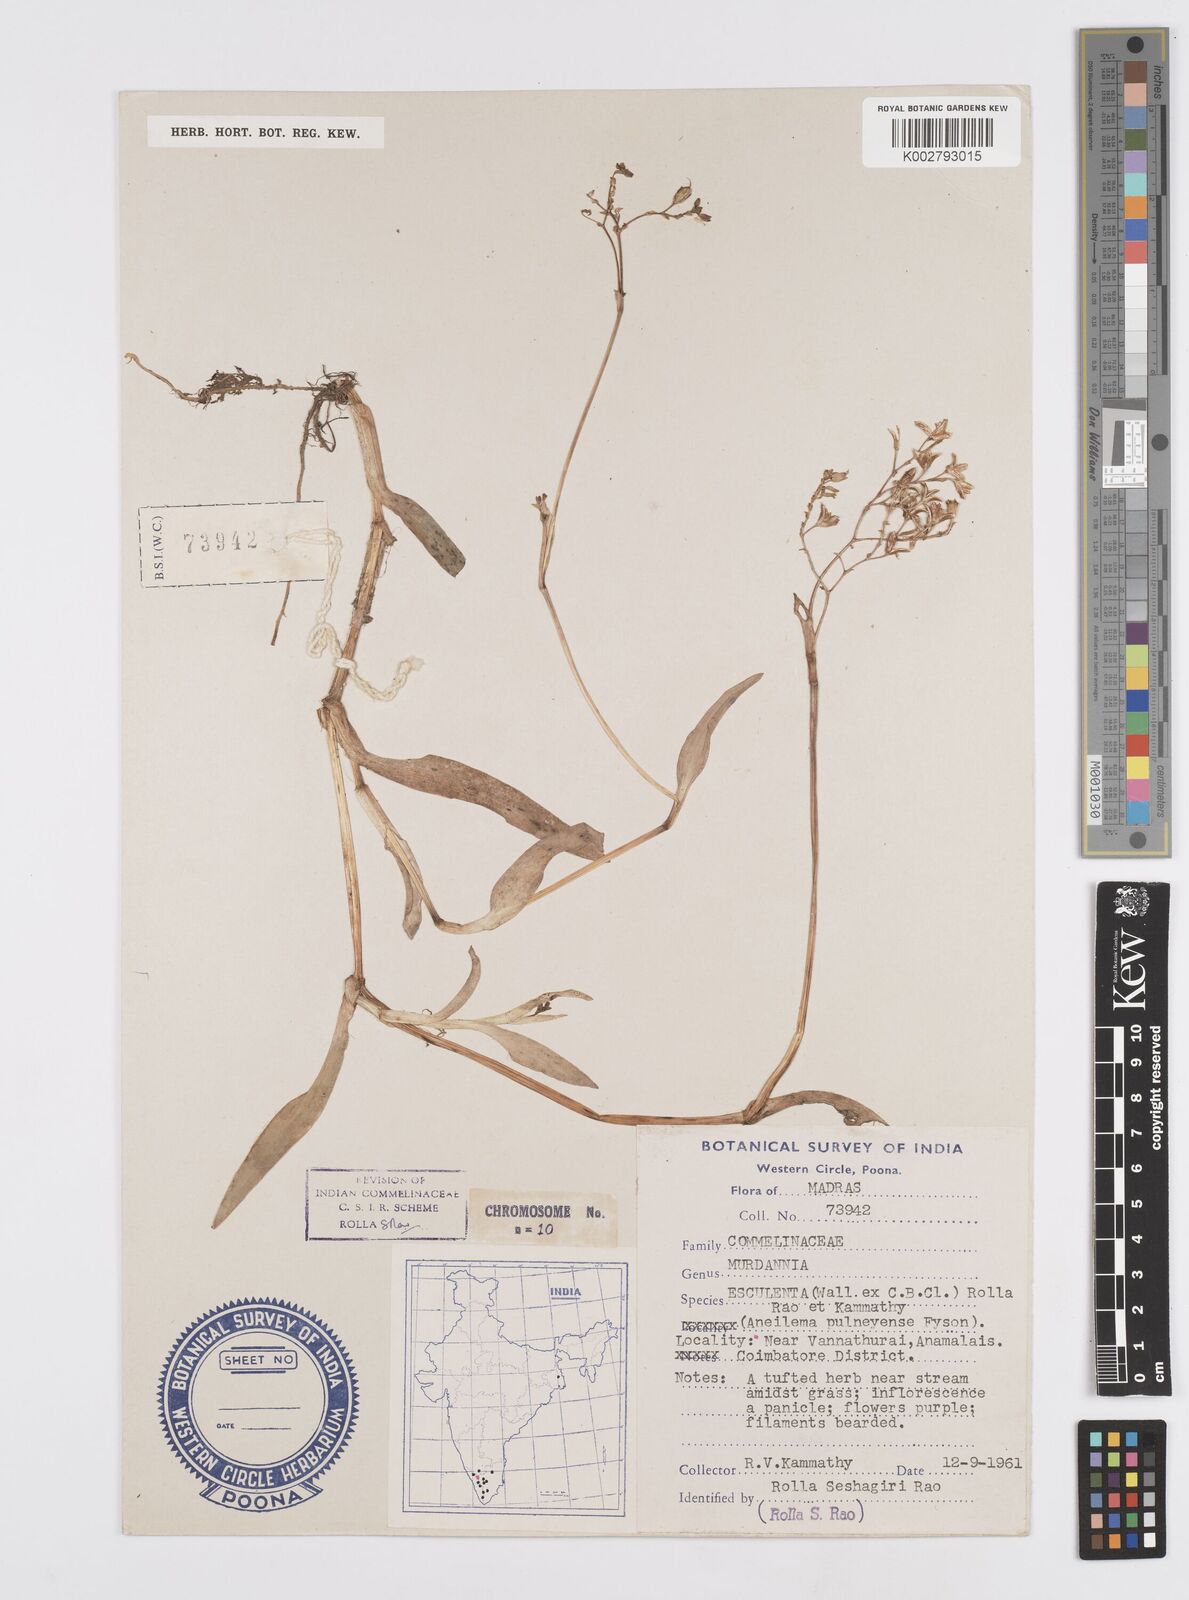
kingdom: Plantae
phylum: Tracheophyta
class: Liliopsida
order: Commelinales
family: Commelinaceae
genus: Murdannia
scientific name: Murdannia esculenta
